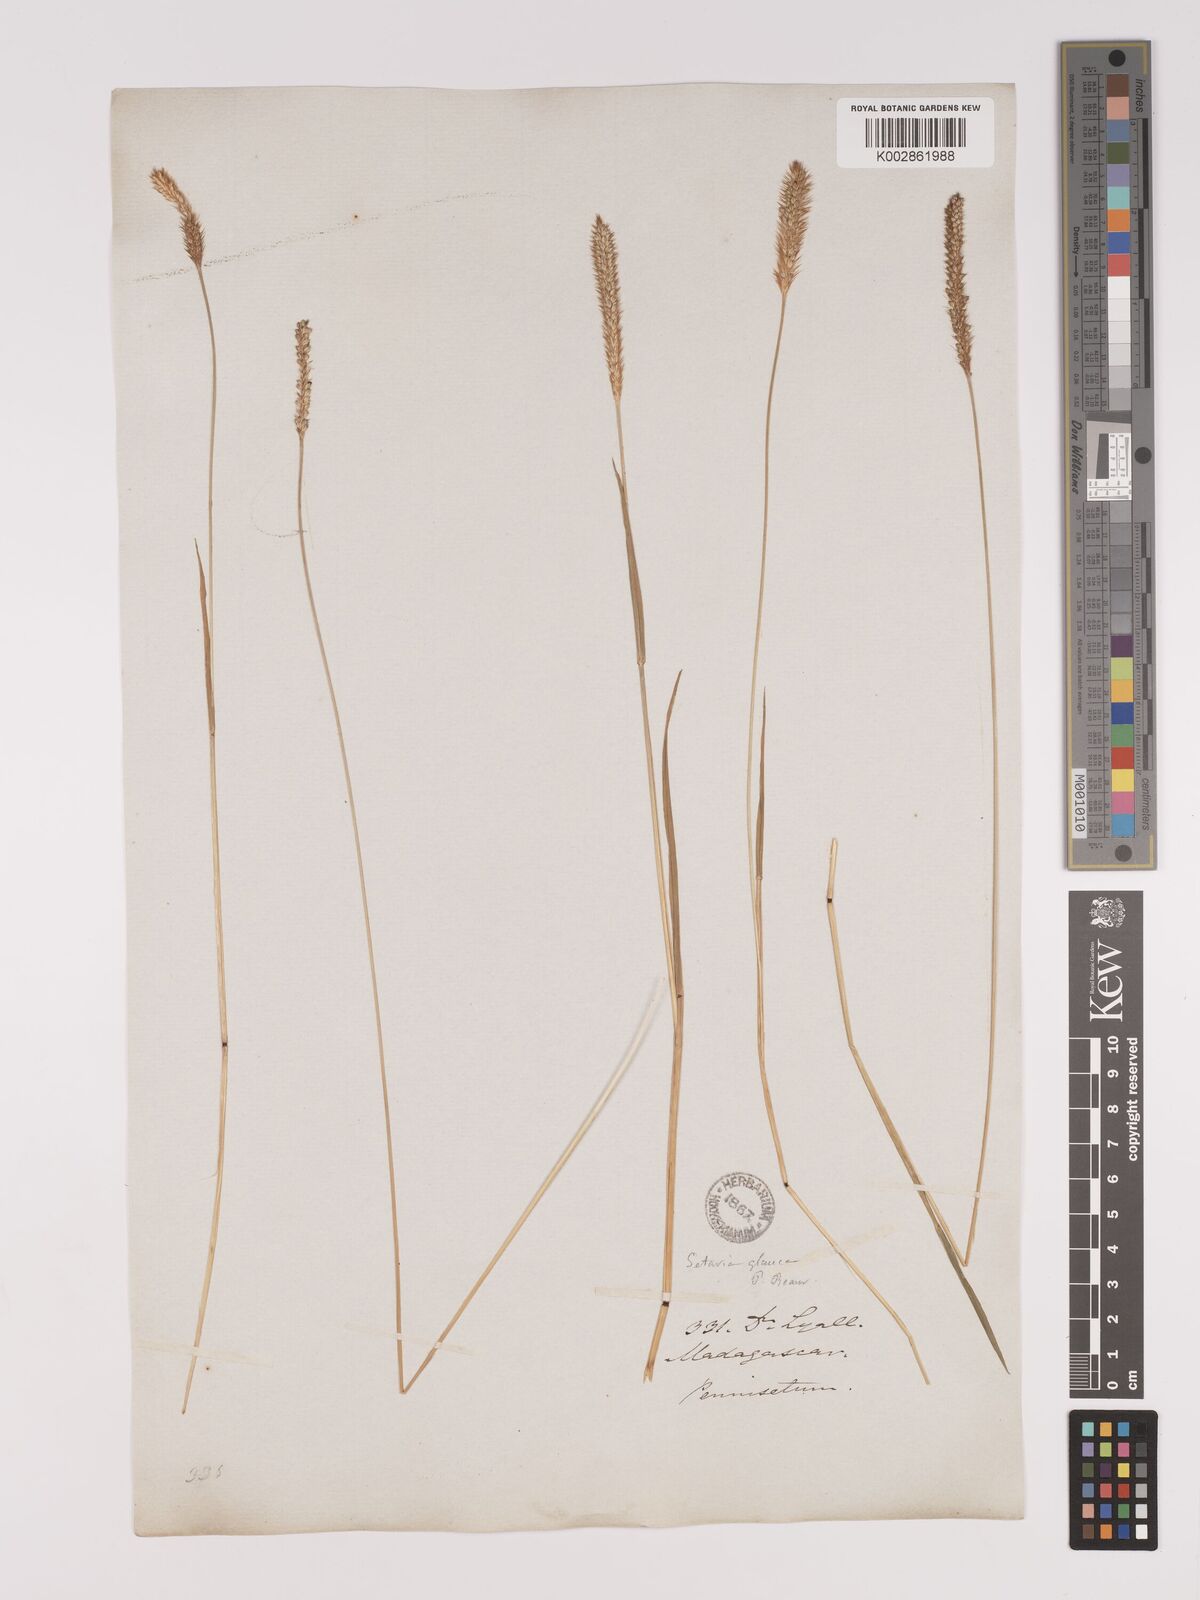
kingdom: Plantae
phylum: Tracheophyta
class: Liliopsida
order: Poales
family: Poaceae
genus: Setaria
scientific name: Setaria pumila
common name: Yellow bristle-grass
